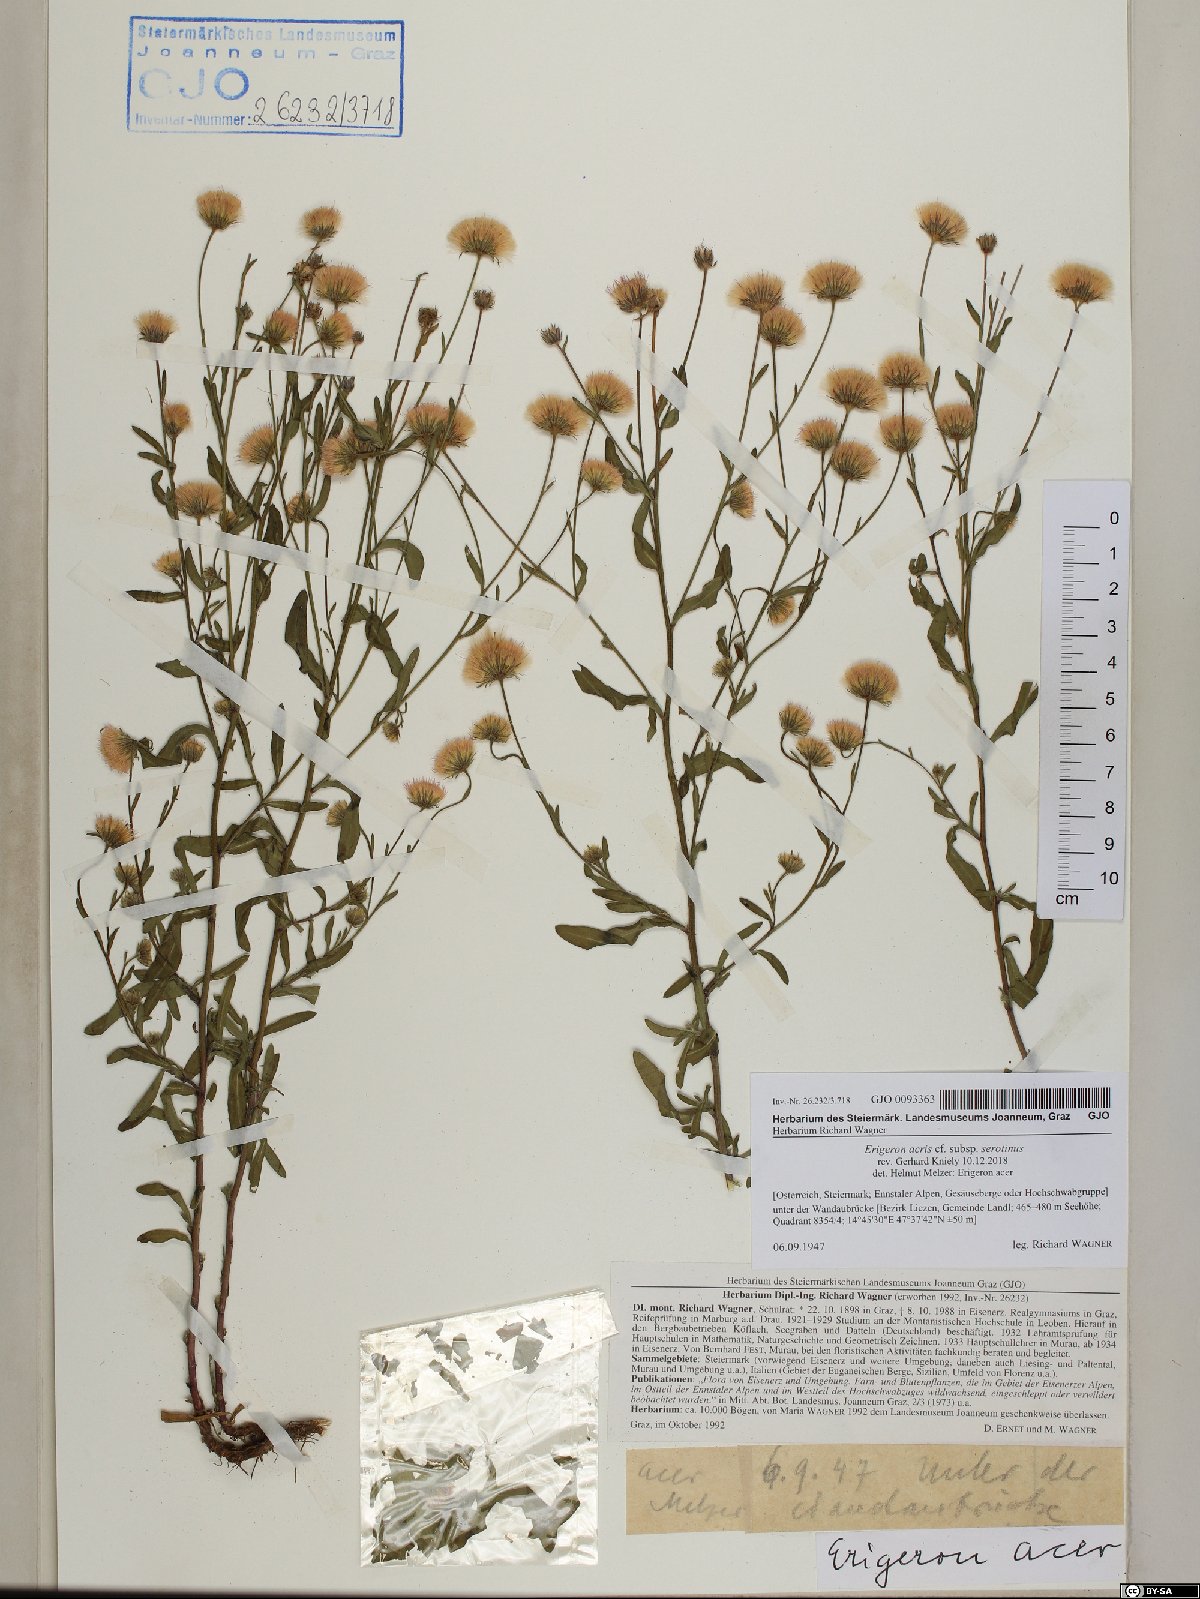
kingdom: Plantae
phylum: Tracheophyta
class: Magnoliopsida
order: Asterales
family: Asteraceae
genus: Erigeron
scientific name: Erigeron muralis
